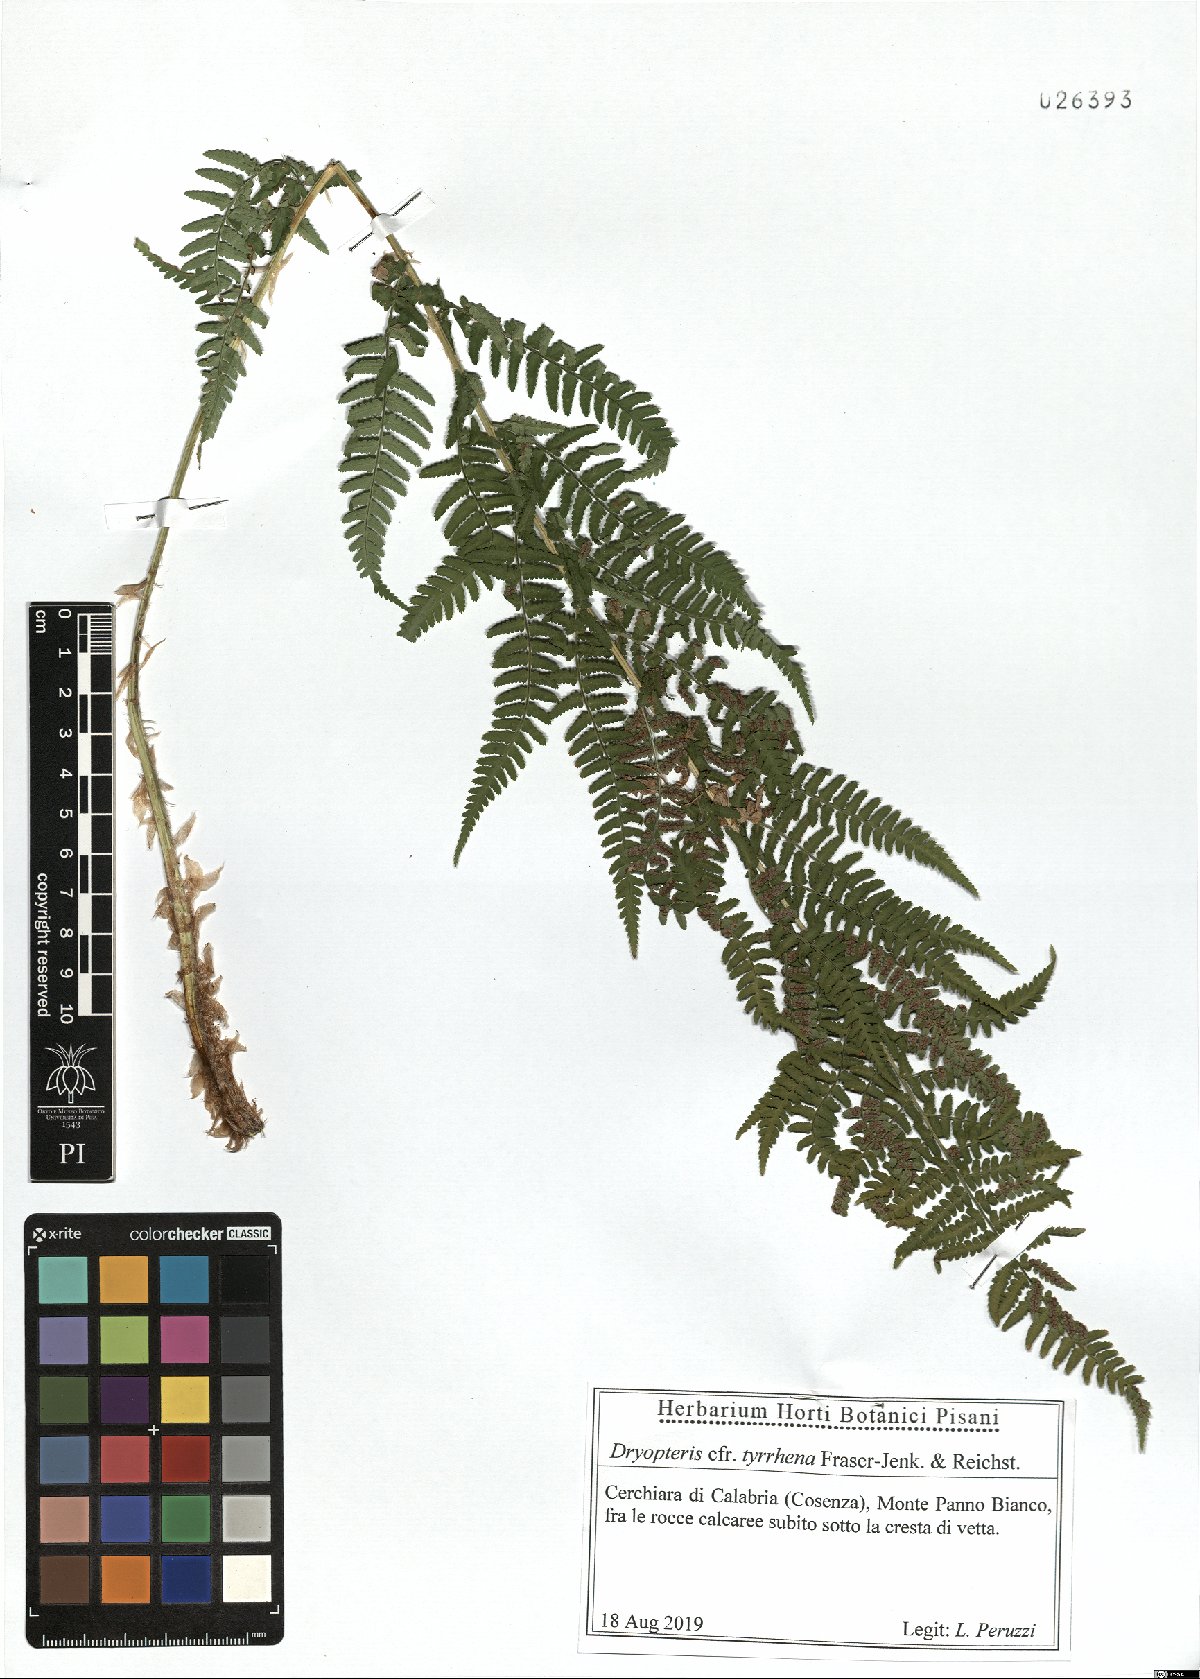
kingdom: Plantae
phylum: Tracheophyta
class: Polypodiopsida
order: Polypodiales
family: Dryopteridaceae
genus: Dryopteris
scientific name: Dryopteris pallida
